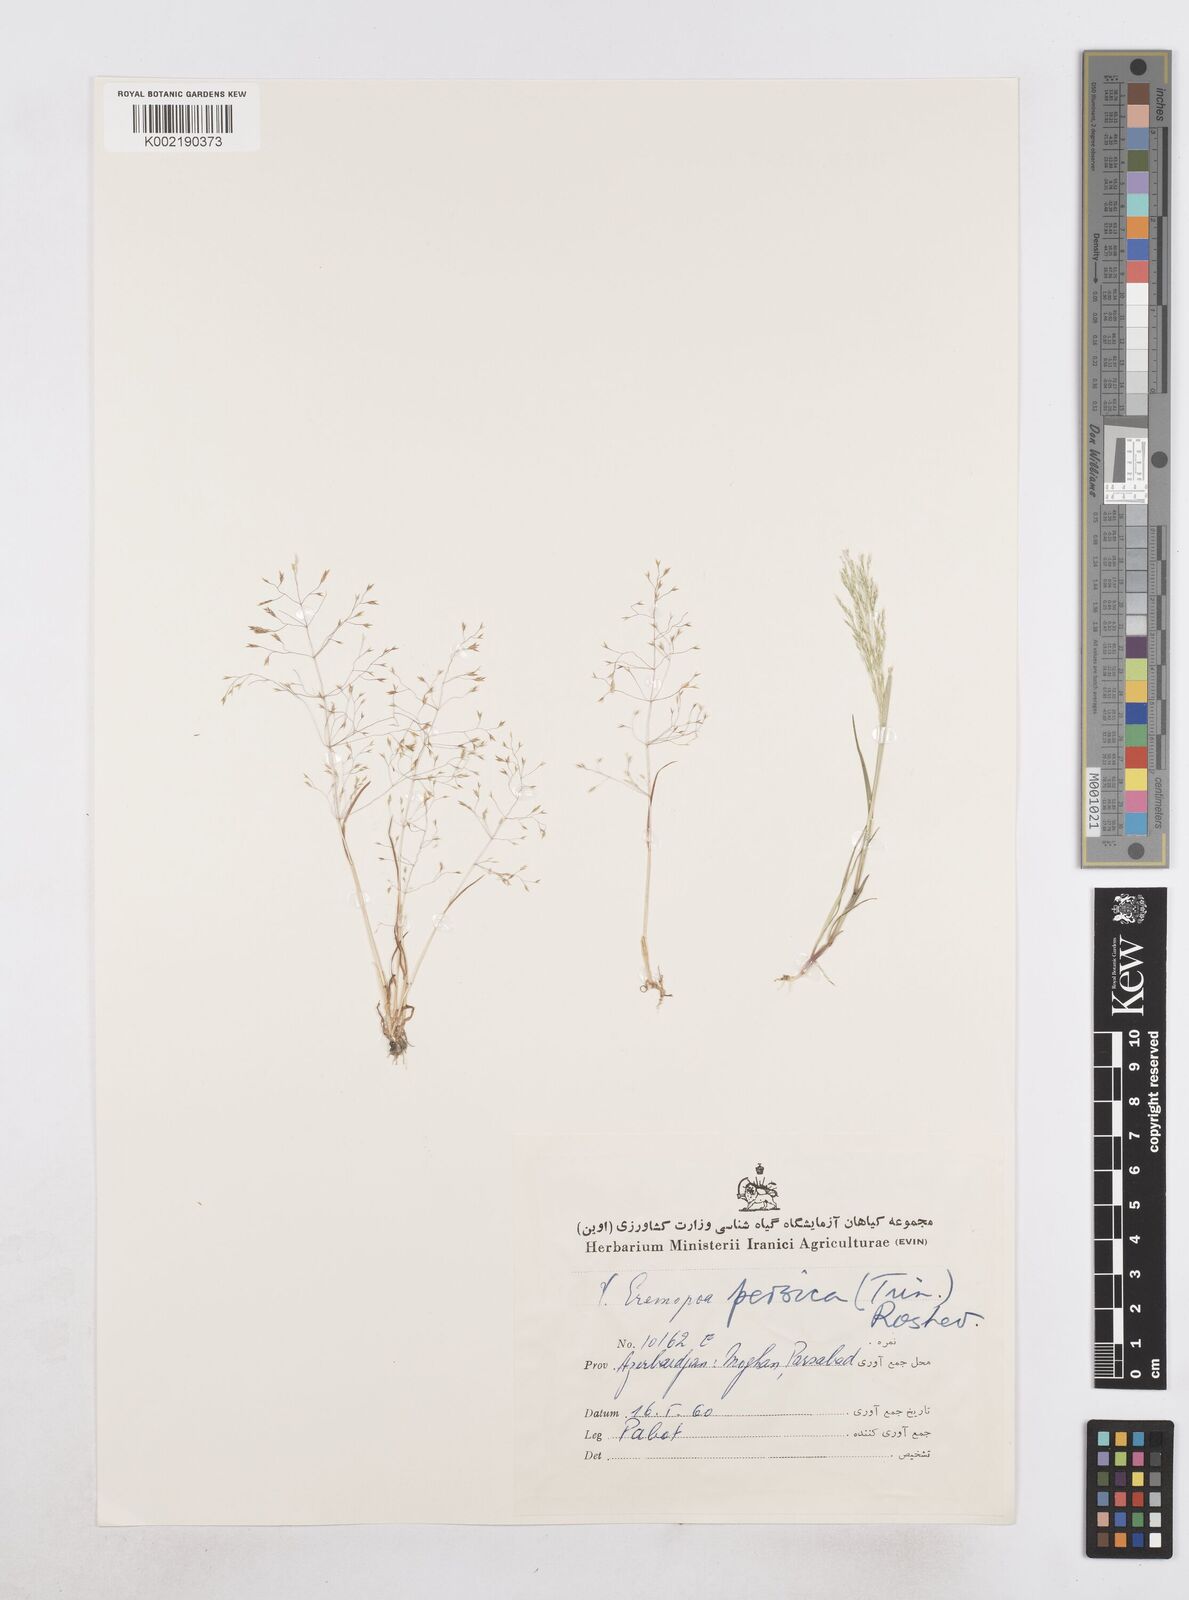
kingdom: Plantae
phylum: Tracheophyta
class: Liliopsida
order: Poales
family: Poaceae
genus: Poa
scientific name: Poa persica
